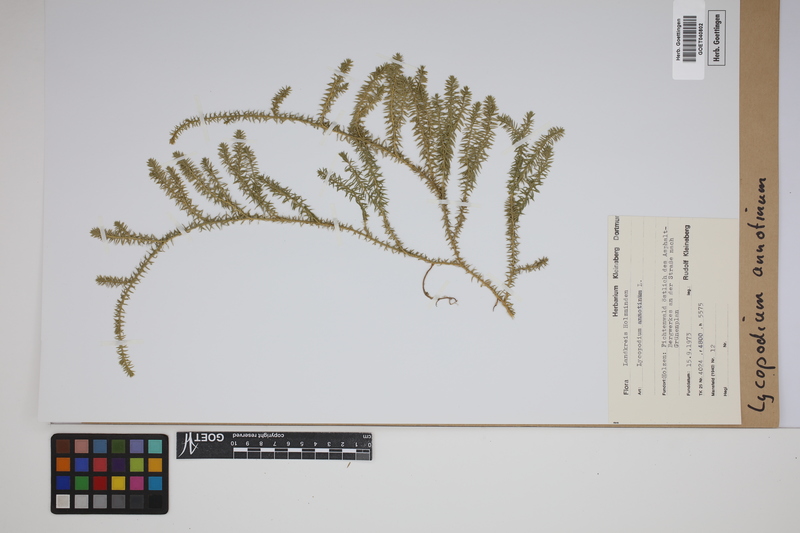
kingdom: Plantae
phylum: Tracheophyta
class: Lycopodiopsida
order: Lycopodiales
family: Lycopodiaceae
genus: Spinulum
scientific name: Spinulum annotinum
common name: Interrupted club-moss
